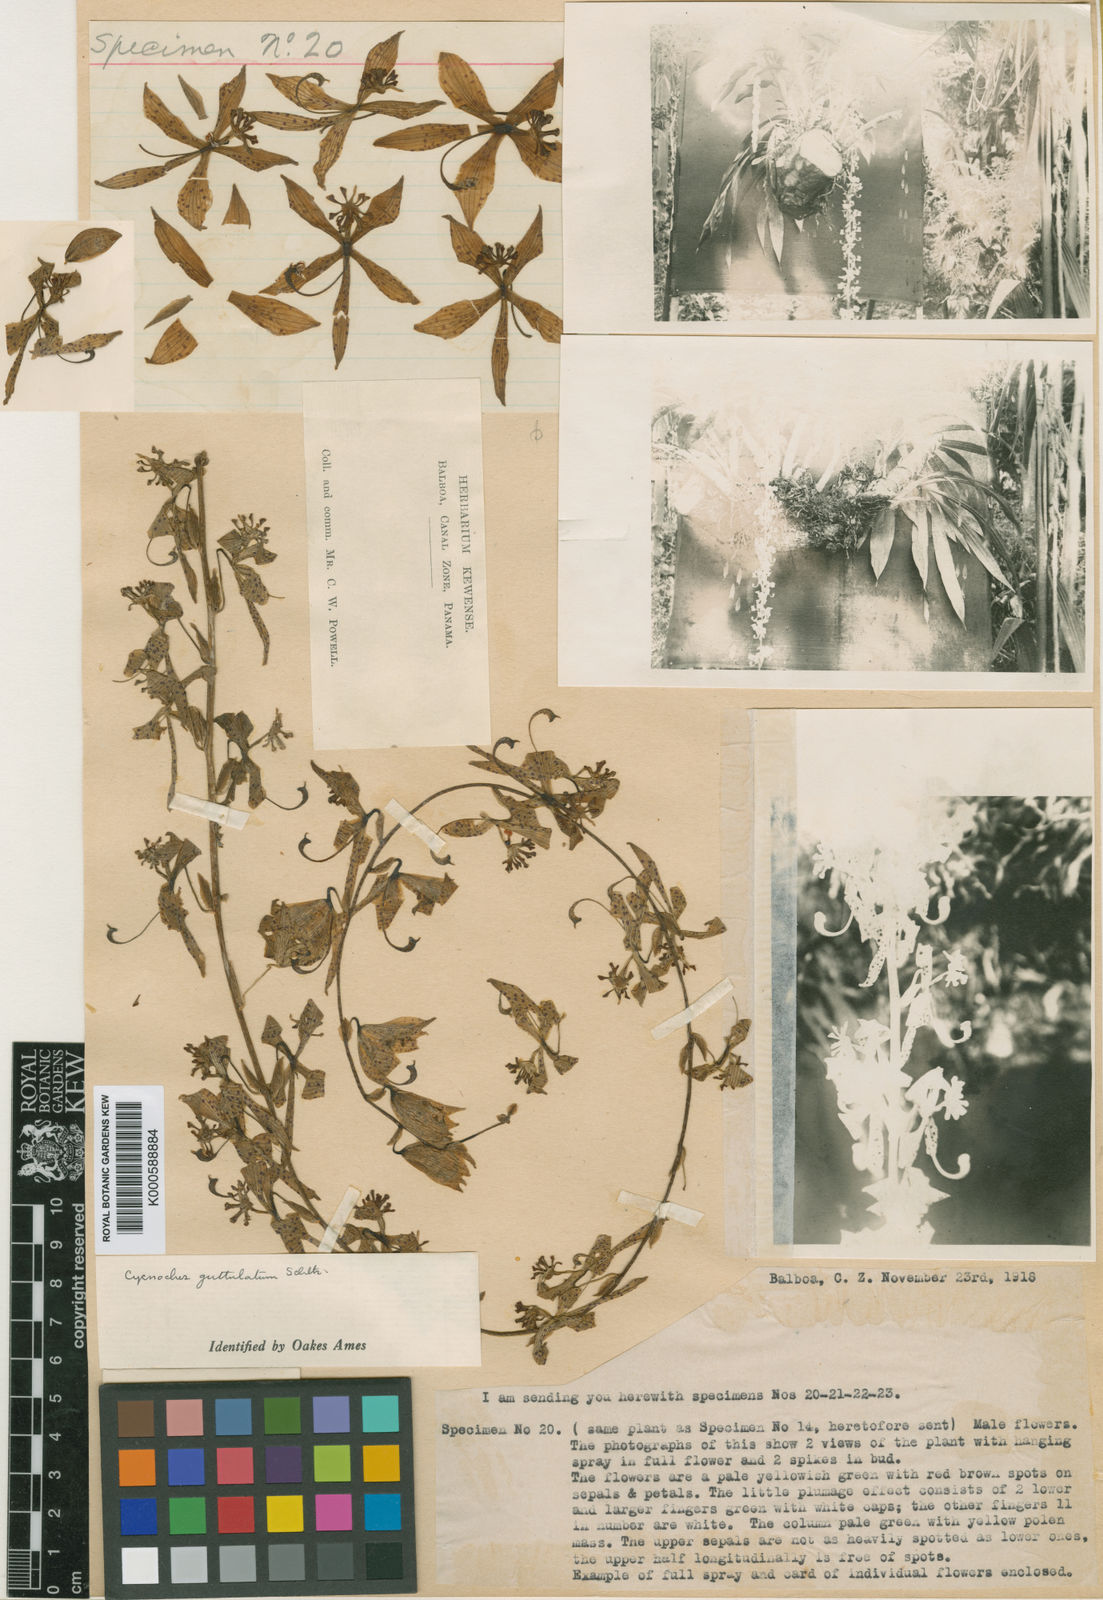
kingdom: Plantae
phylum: Tracheophyta
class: Liliopsida
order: Asparagales
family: Orchidaceae
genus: Cycnoches
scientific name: Cycnoches guttulatum
